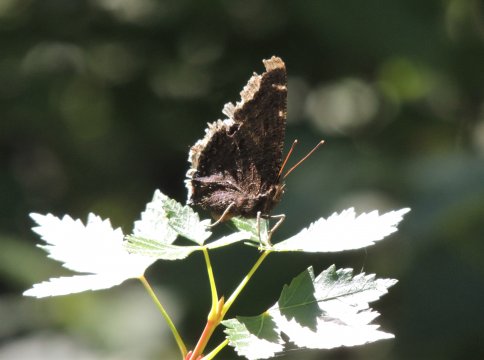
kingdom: Animalia
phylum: Arthropoda
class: Insecta
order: Lepidoptera
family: Nymphalidae
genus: Nymphalis
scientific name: Nymphalis antiopa
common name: Mourning Cloak
